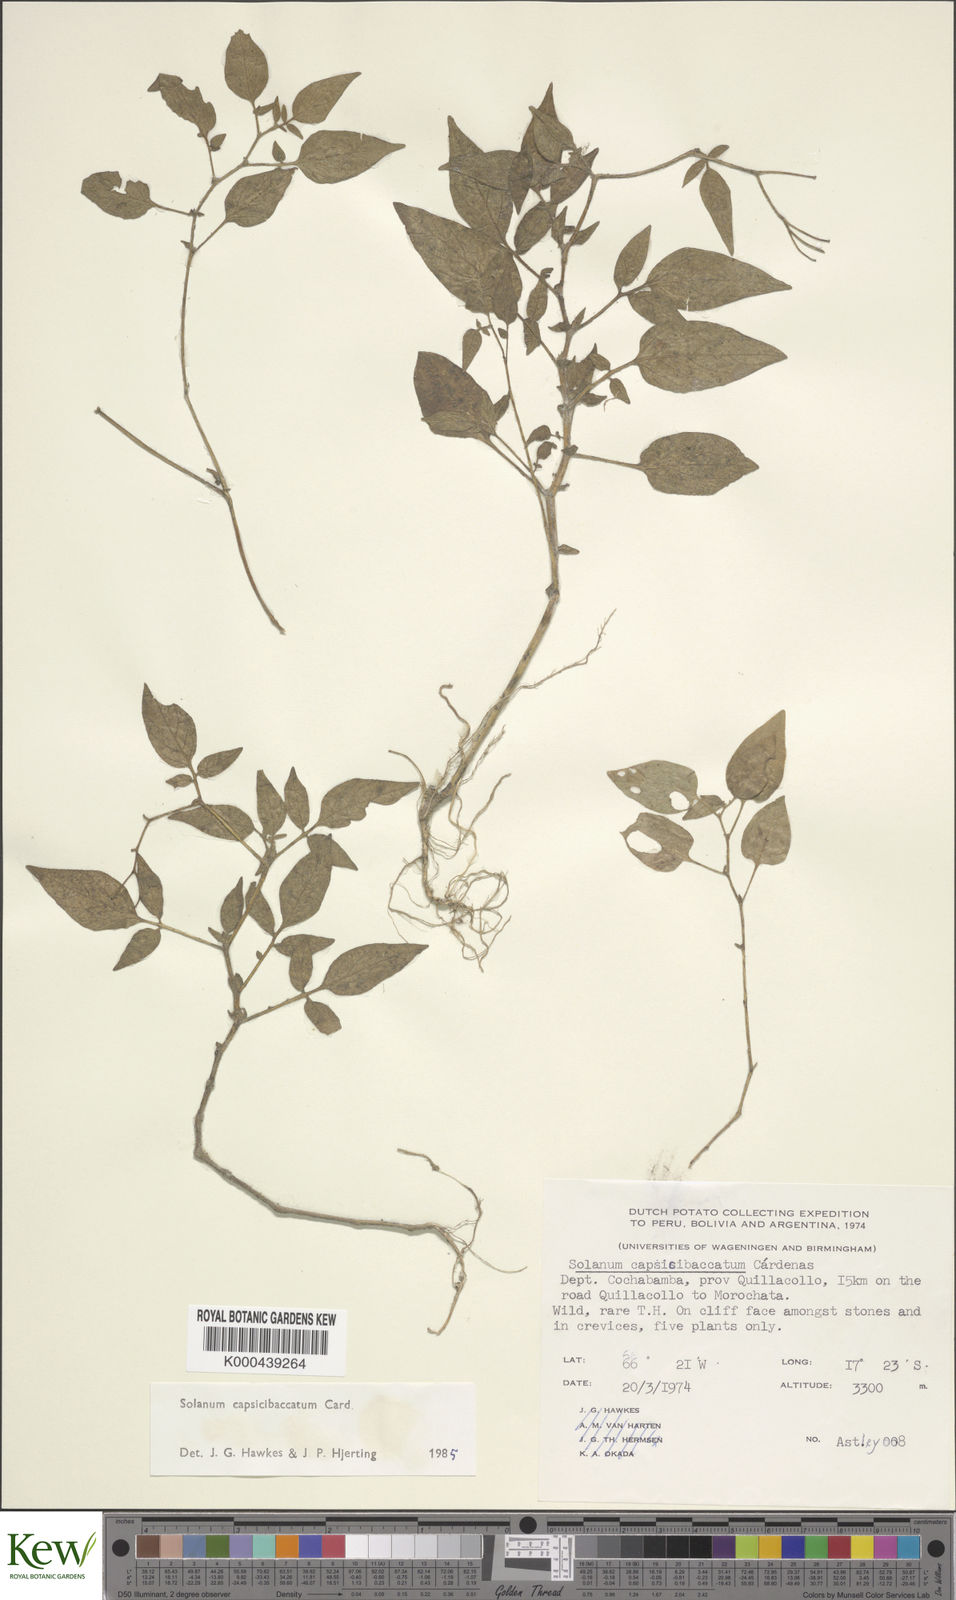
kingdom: Plantae
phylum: Tracheophyta
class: Magnoliopsida
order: Solanales
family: Solanaceae
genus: Solanum
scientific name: Solanum stipuloideum
